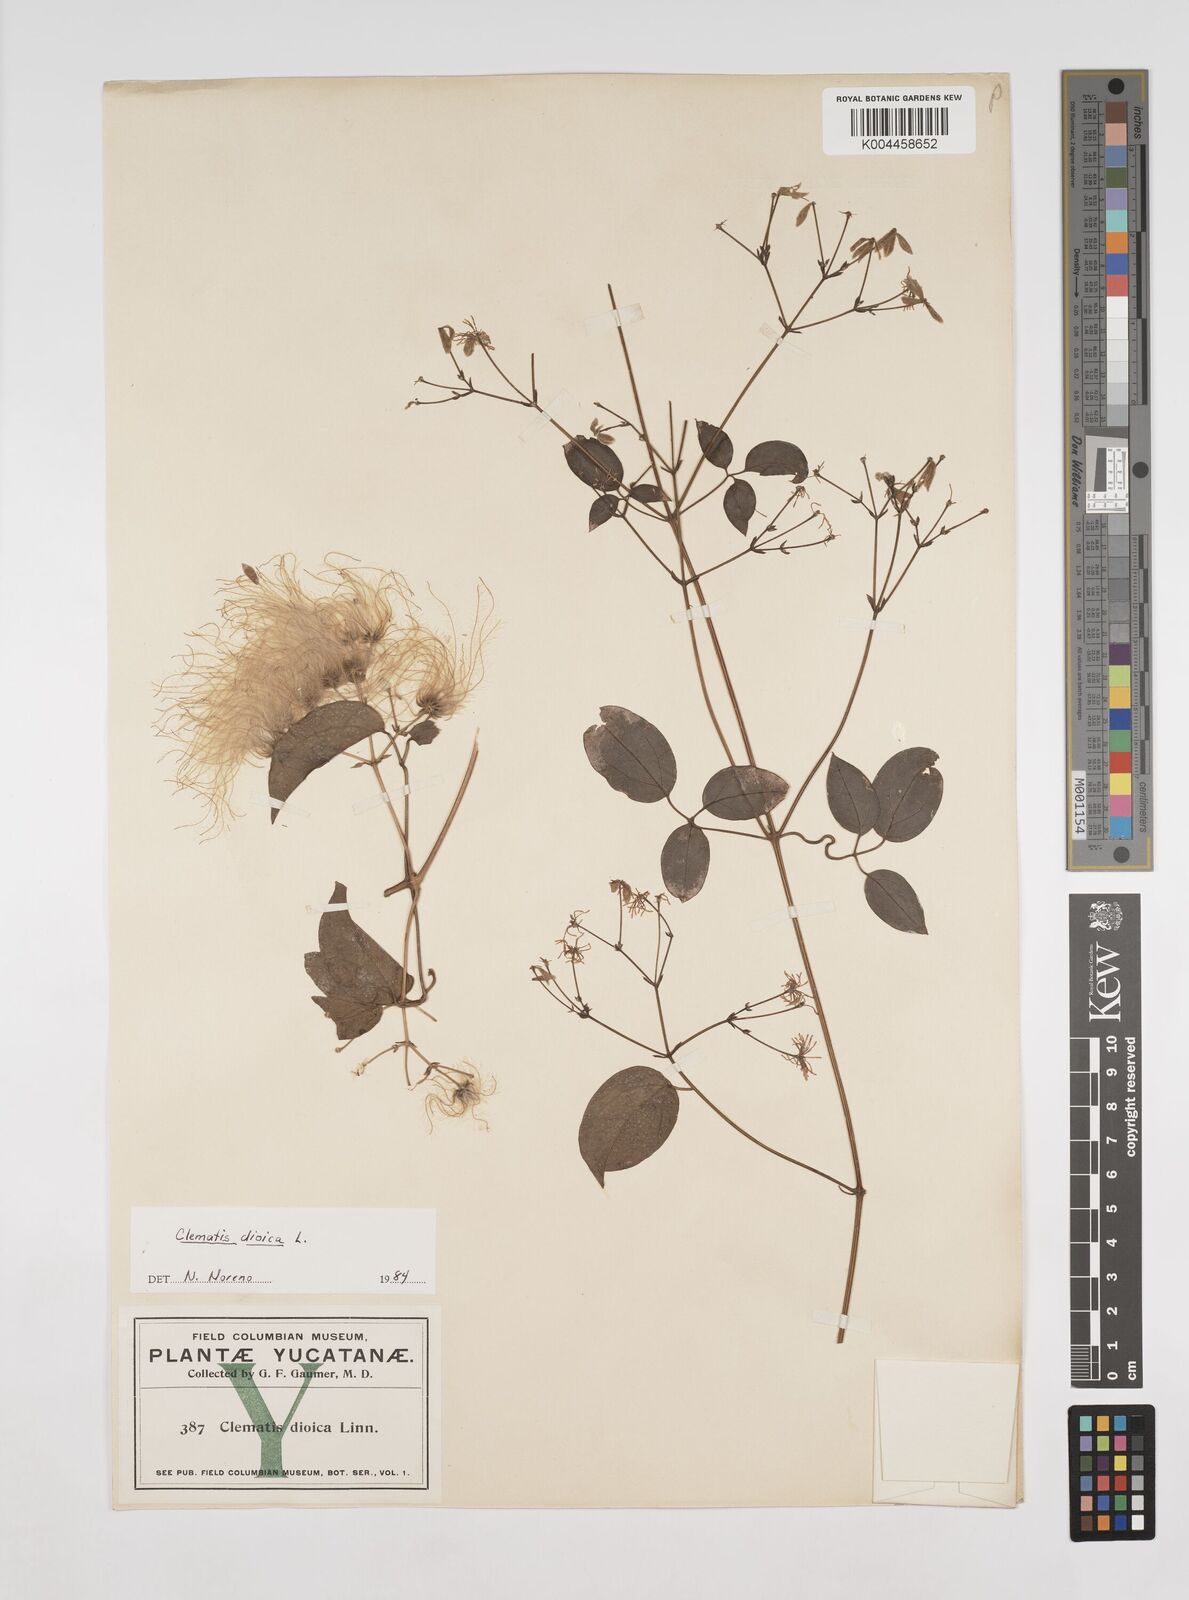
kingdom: Plantae
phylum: Tracheophyta
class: Magnoliopsida
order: Ranunculales
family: Ranunculaceae
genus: Clematis
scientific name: Clematis dioica
